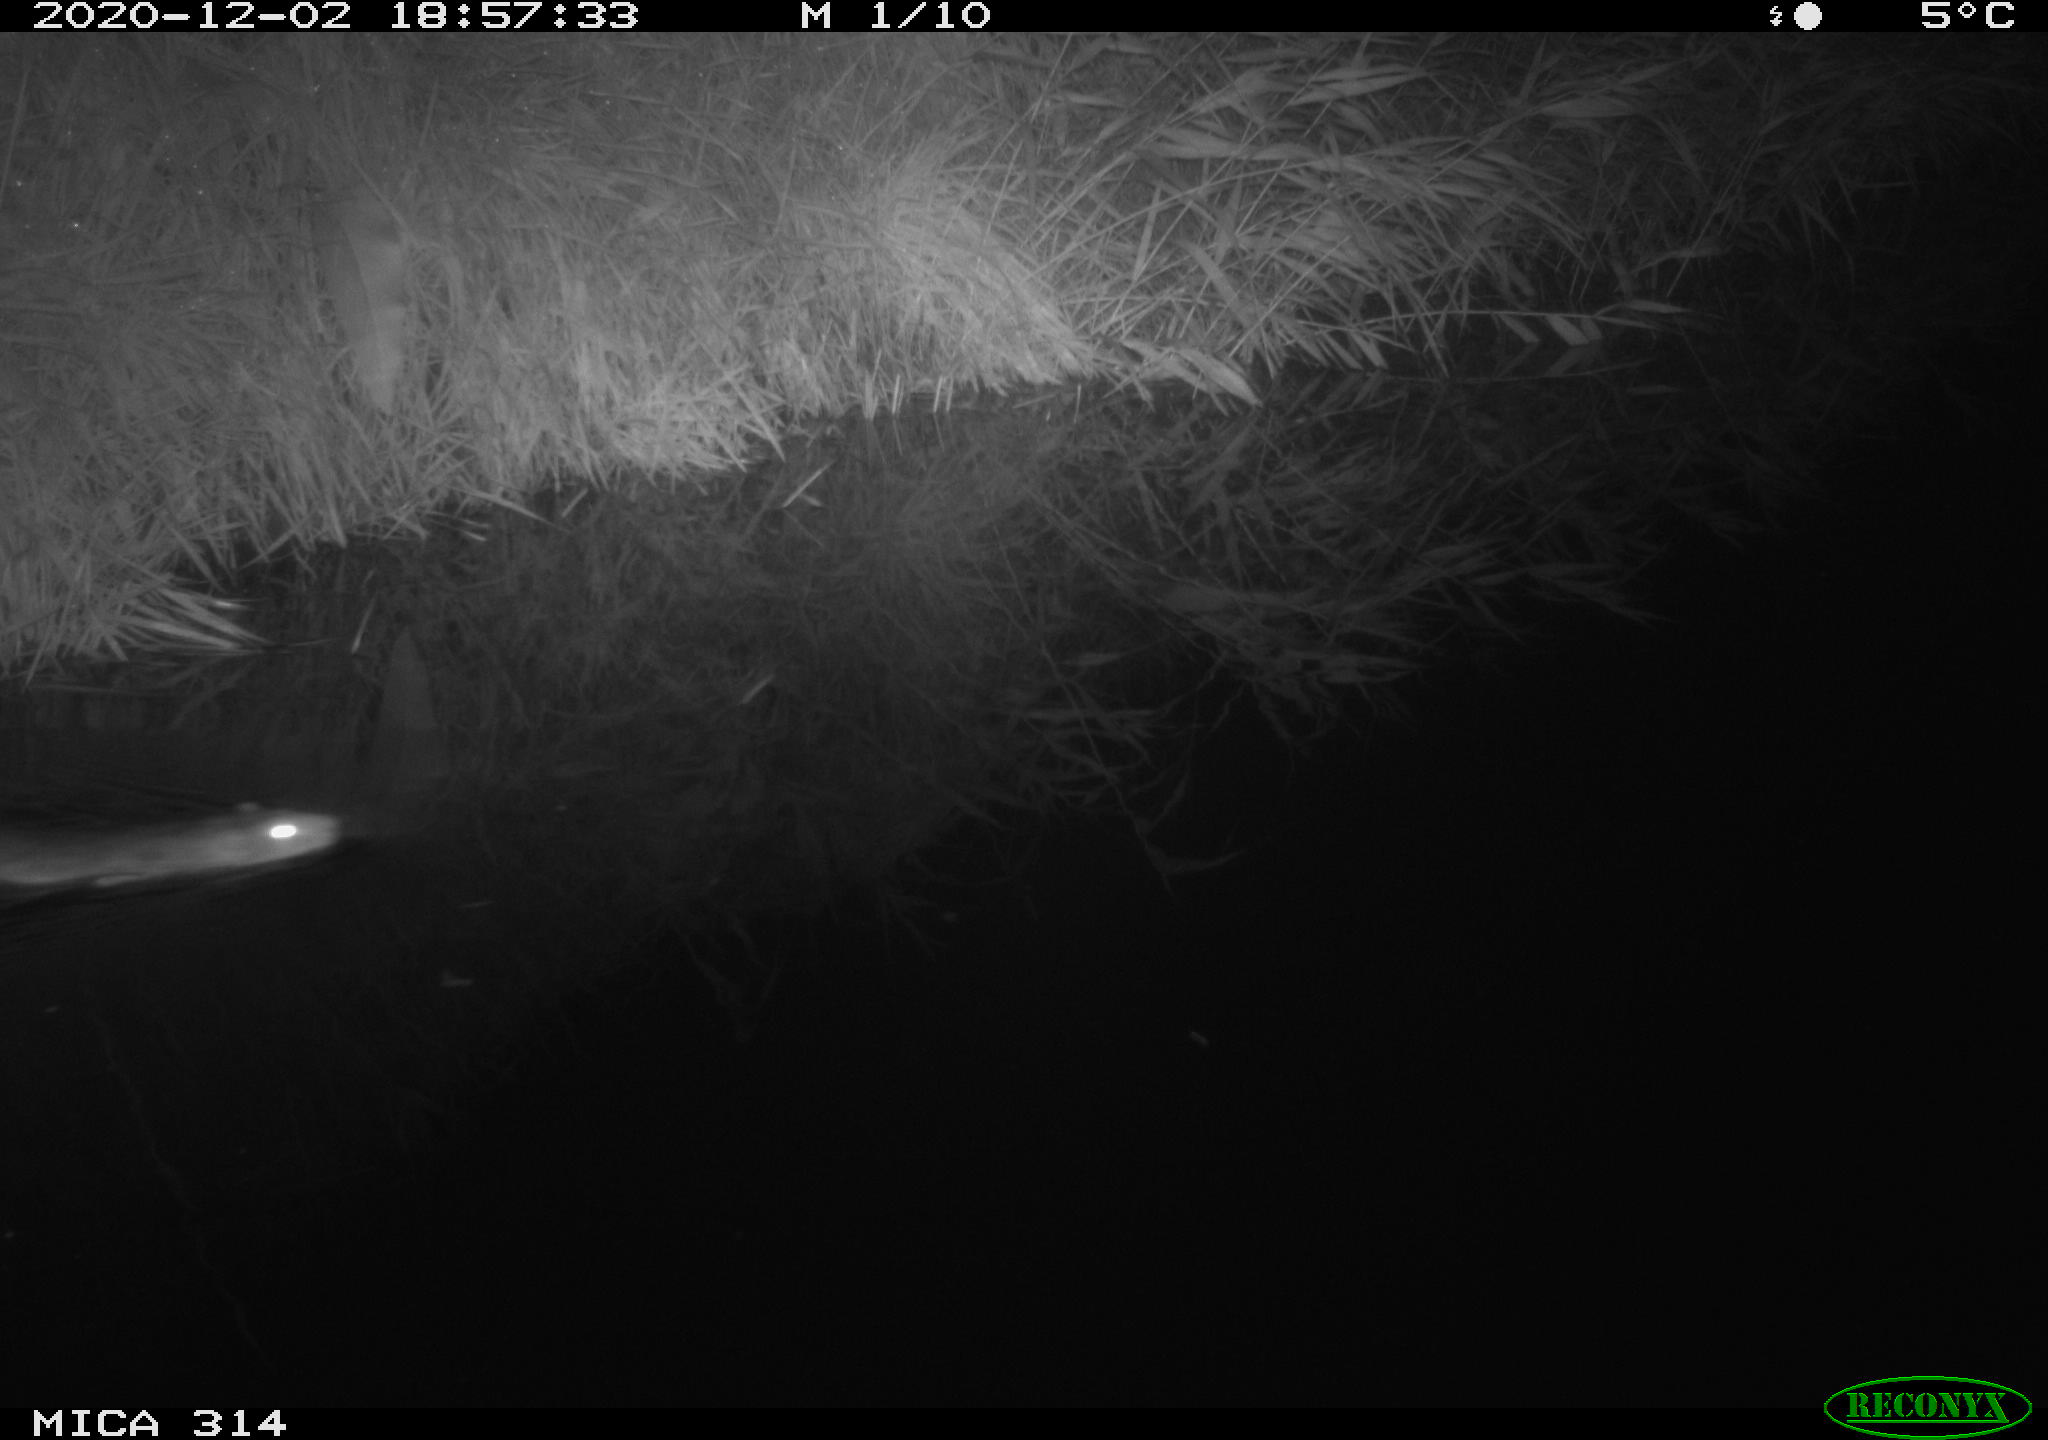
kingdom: Animalia
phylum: Chordata
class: Mammalia
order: Rodentia
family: Muridae
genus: Rattus
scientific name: Rattus norvegicus
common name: Brown rat
